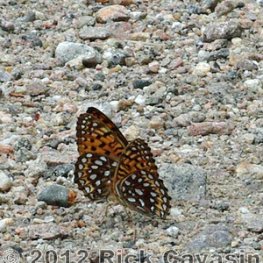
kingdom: Animalia
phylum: Arthropoda
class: Insecta
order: Lepidoptera
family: Nymphalidae
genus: Speyeria
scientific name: Speyeria atlantis
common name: Atlantis Fritillary
